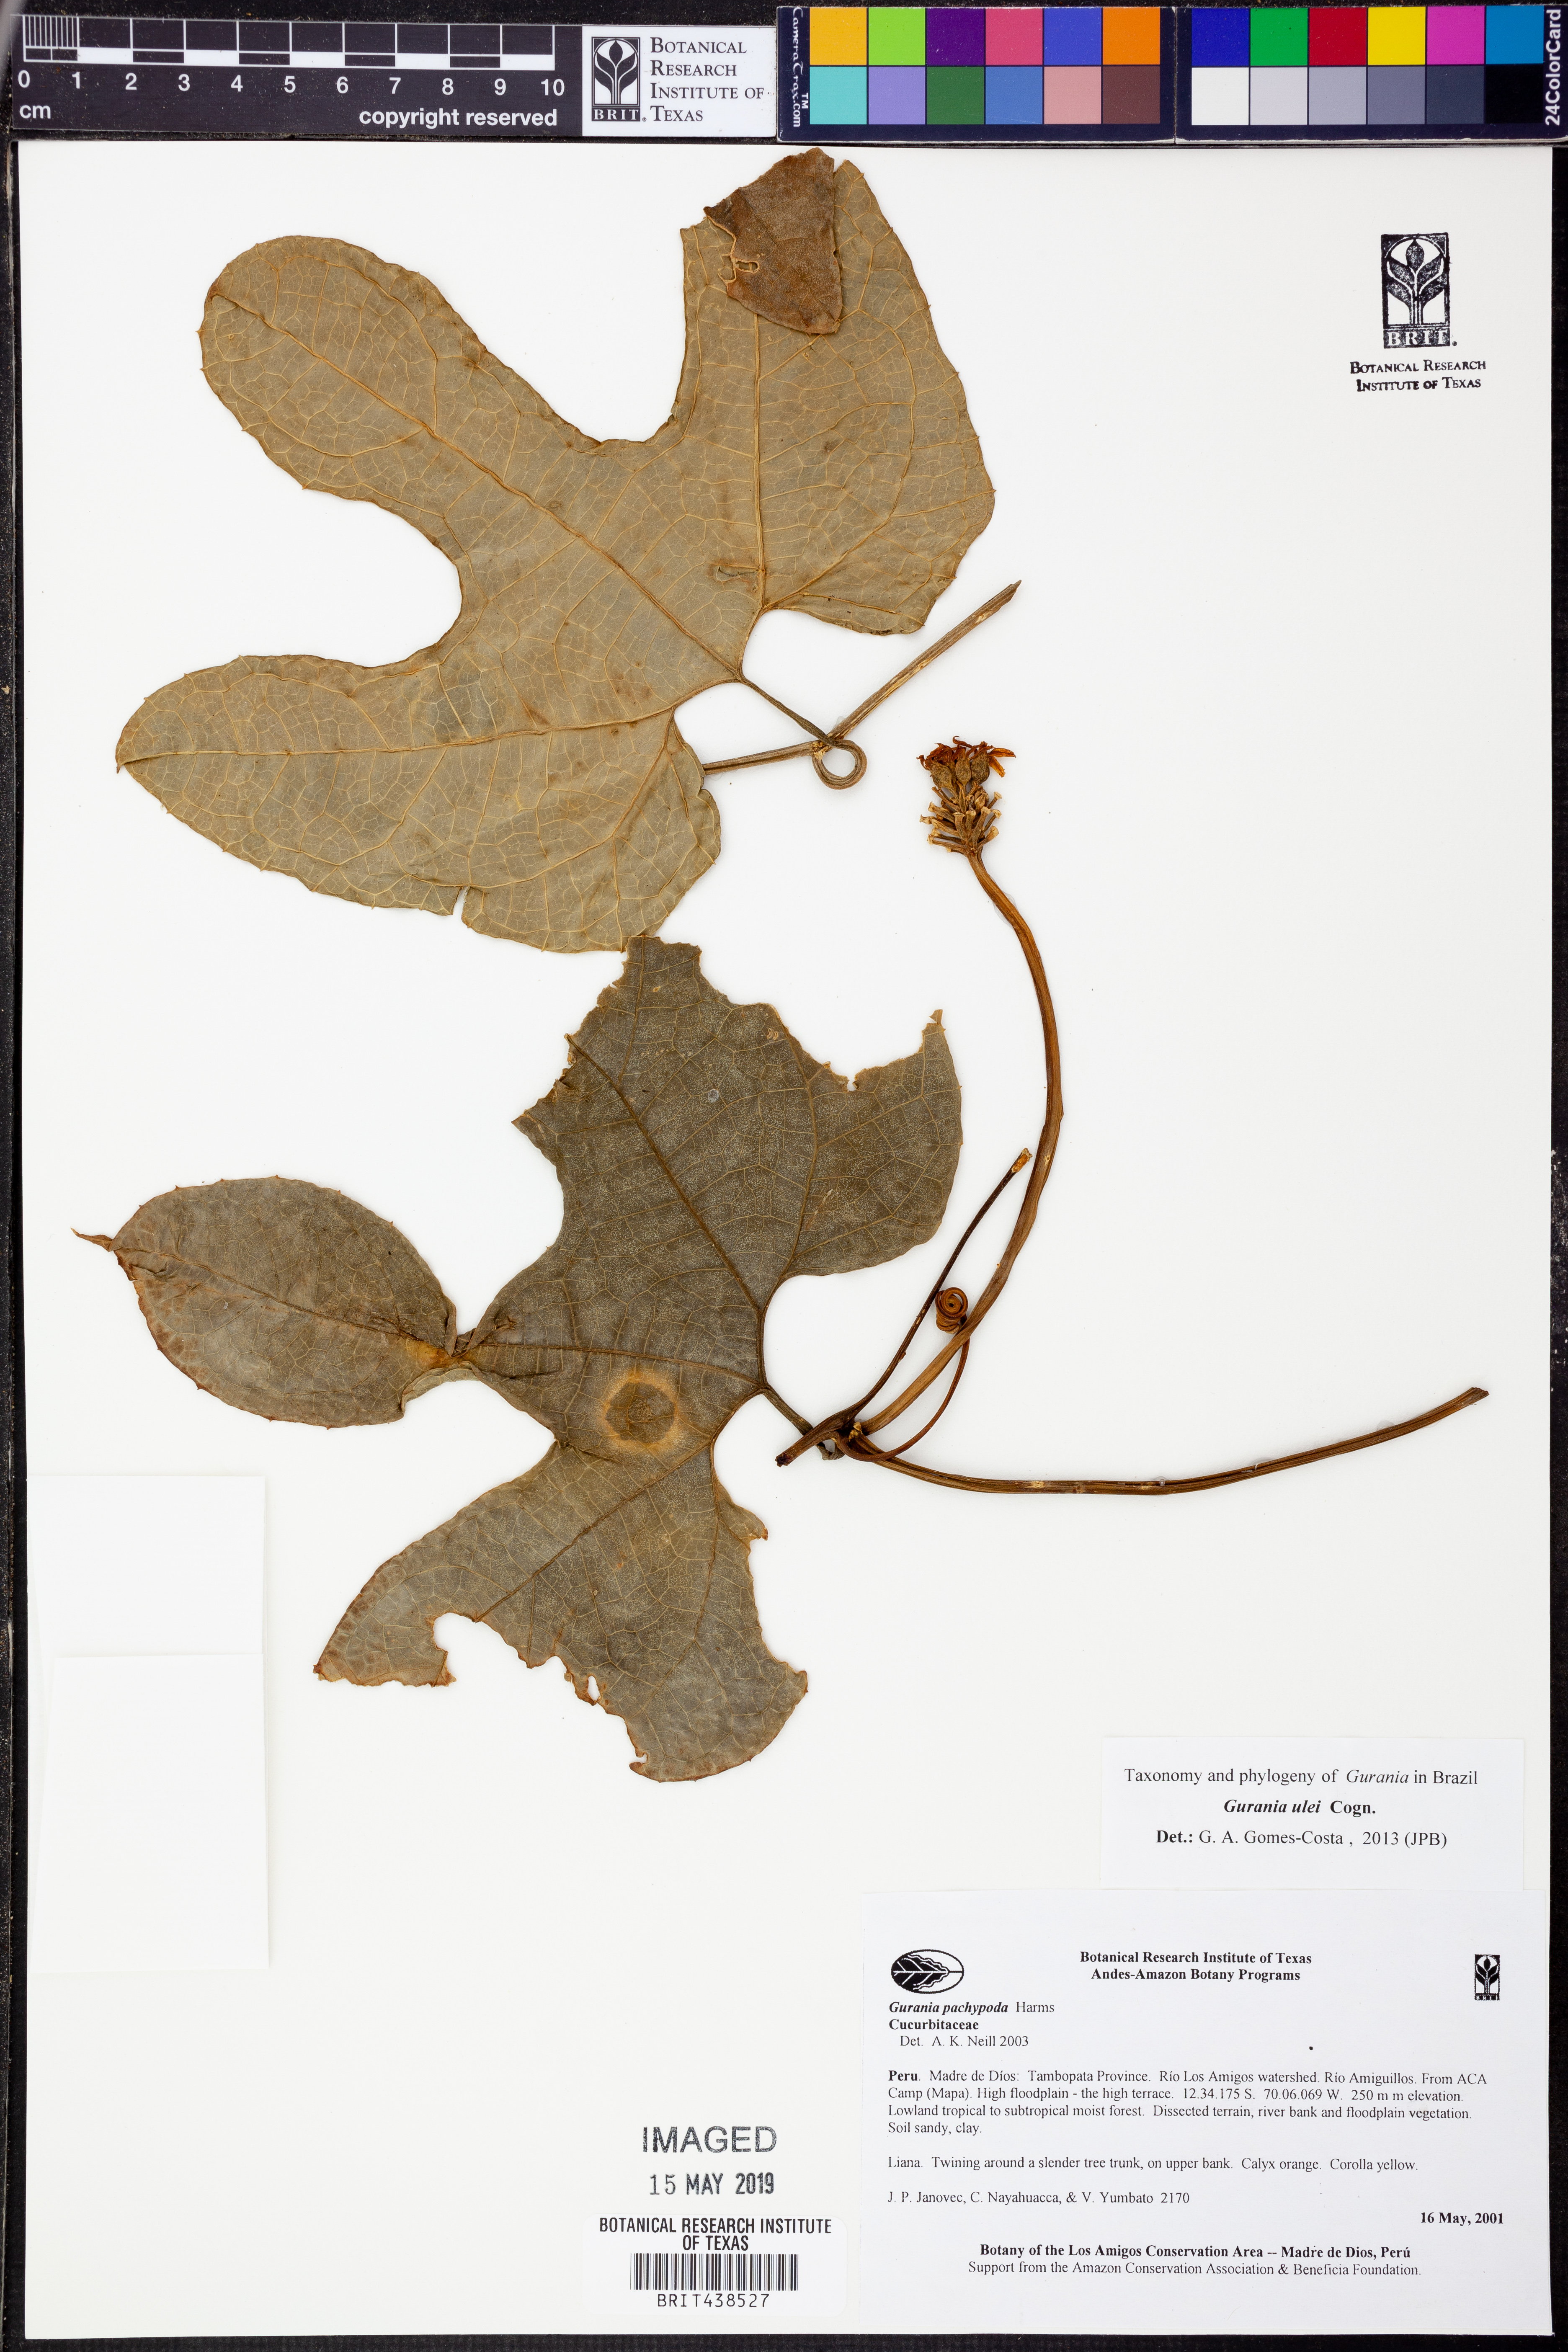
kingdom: Plantae
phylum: Tracheophyta
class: Magnoliopsida
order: Cucurbitales
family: Cucurbitaceae
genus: Gurania
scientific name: Gurania
